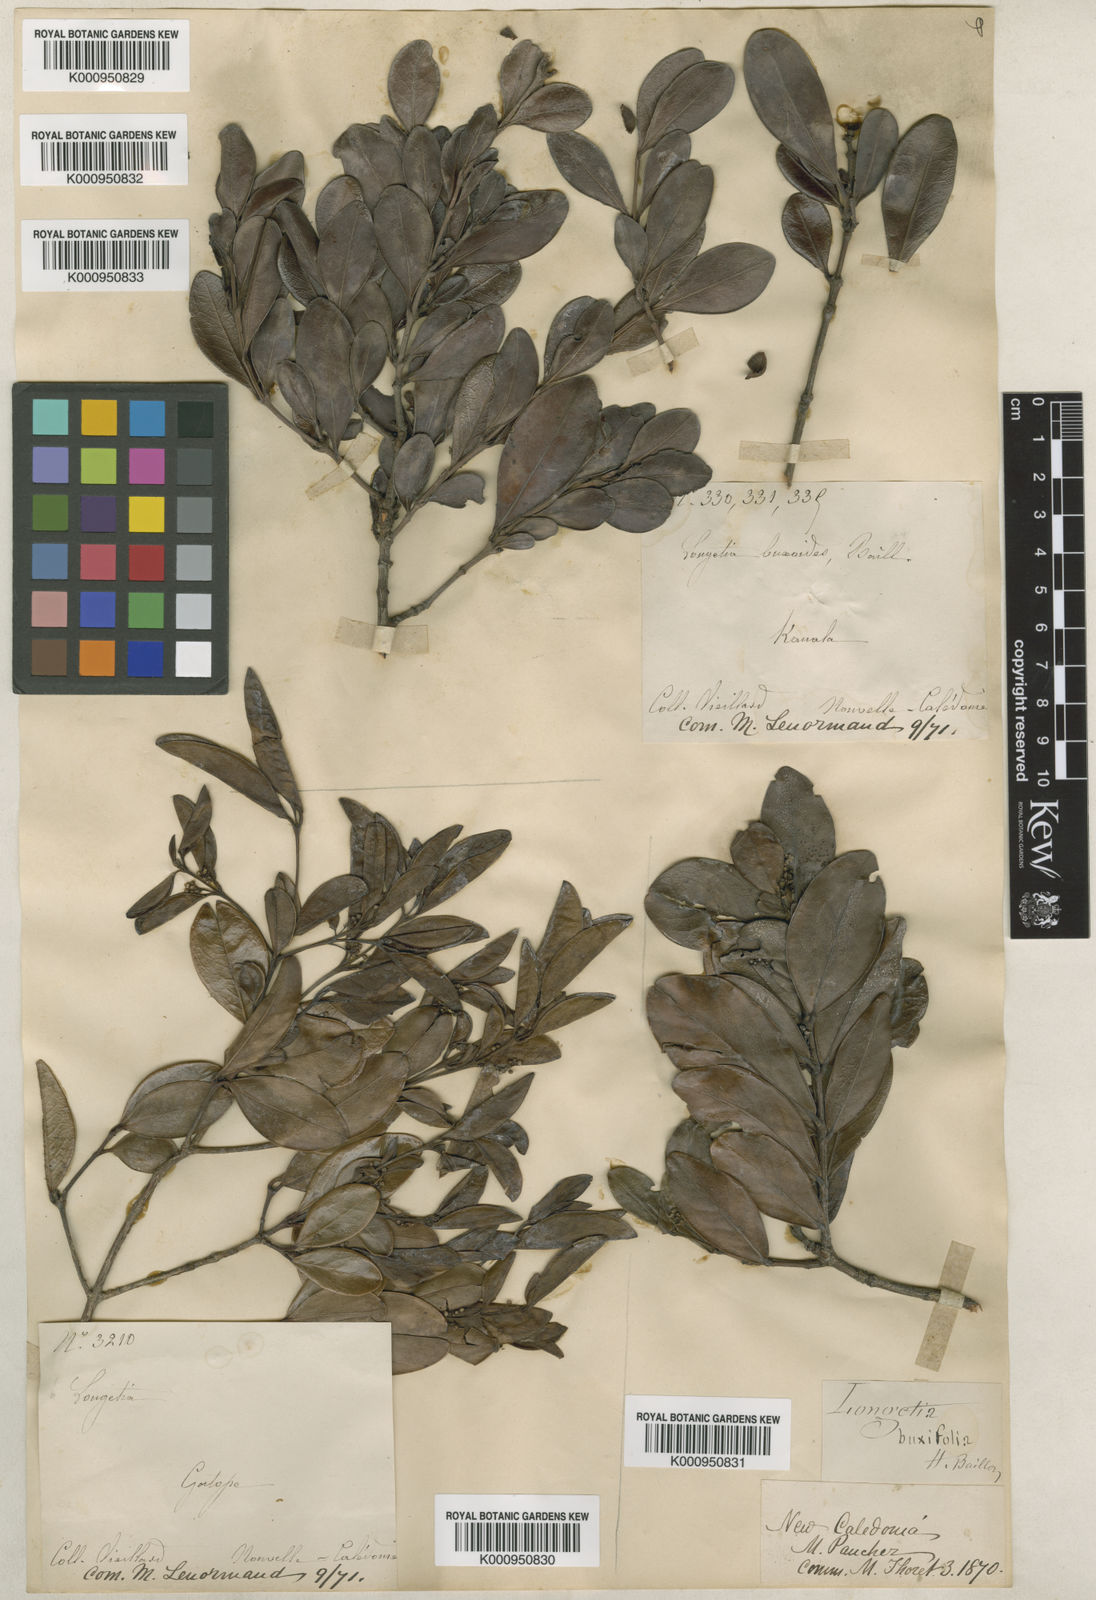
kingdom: Plantae
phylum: Tracheophyta
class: Magnoliopsida
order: Malpighiales
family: Picrodendraceae
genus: Longetia
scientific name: Longetia buxoides
